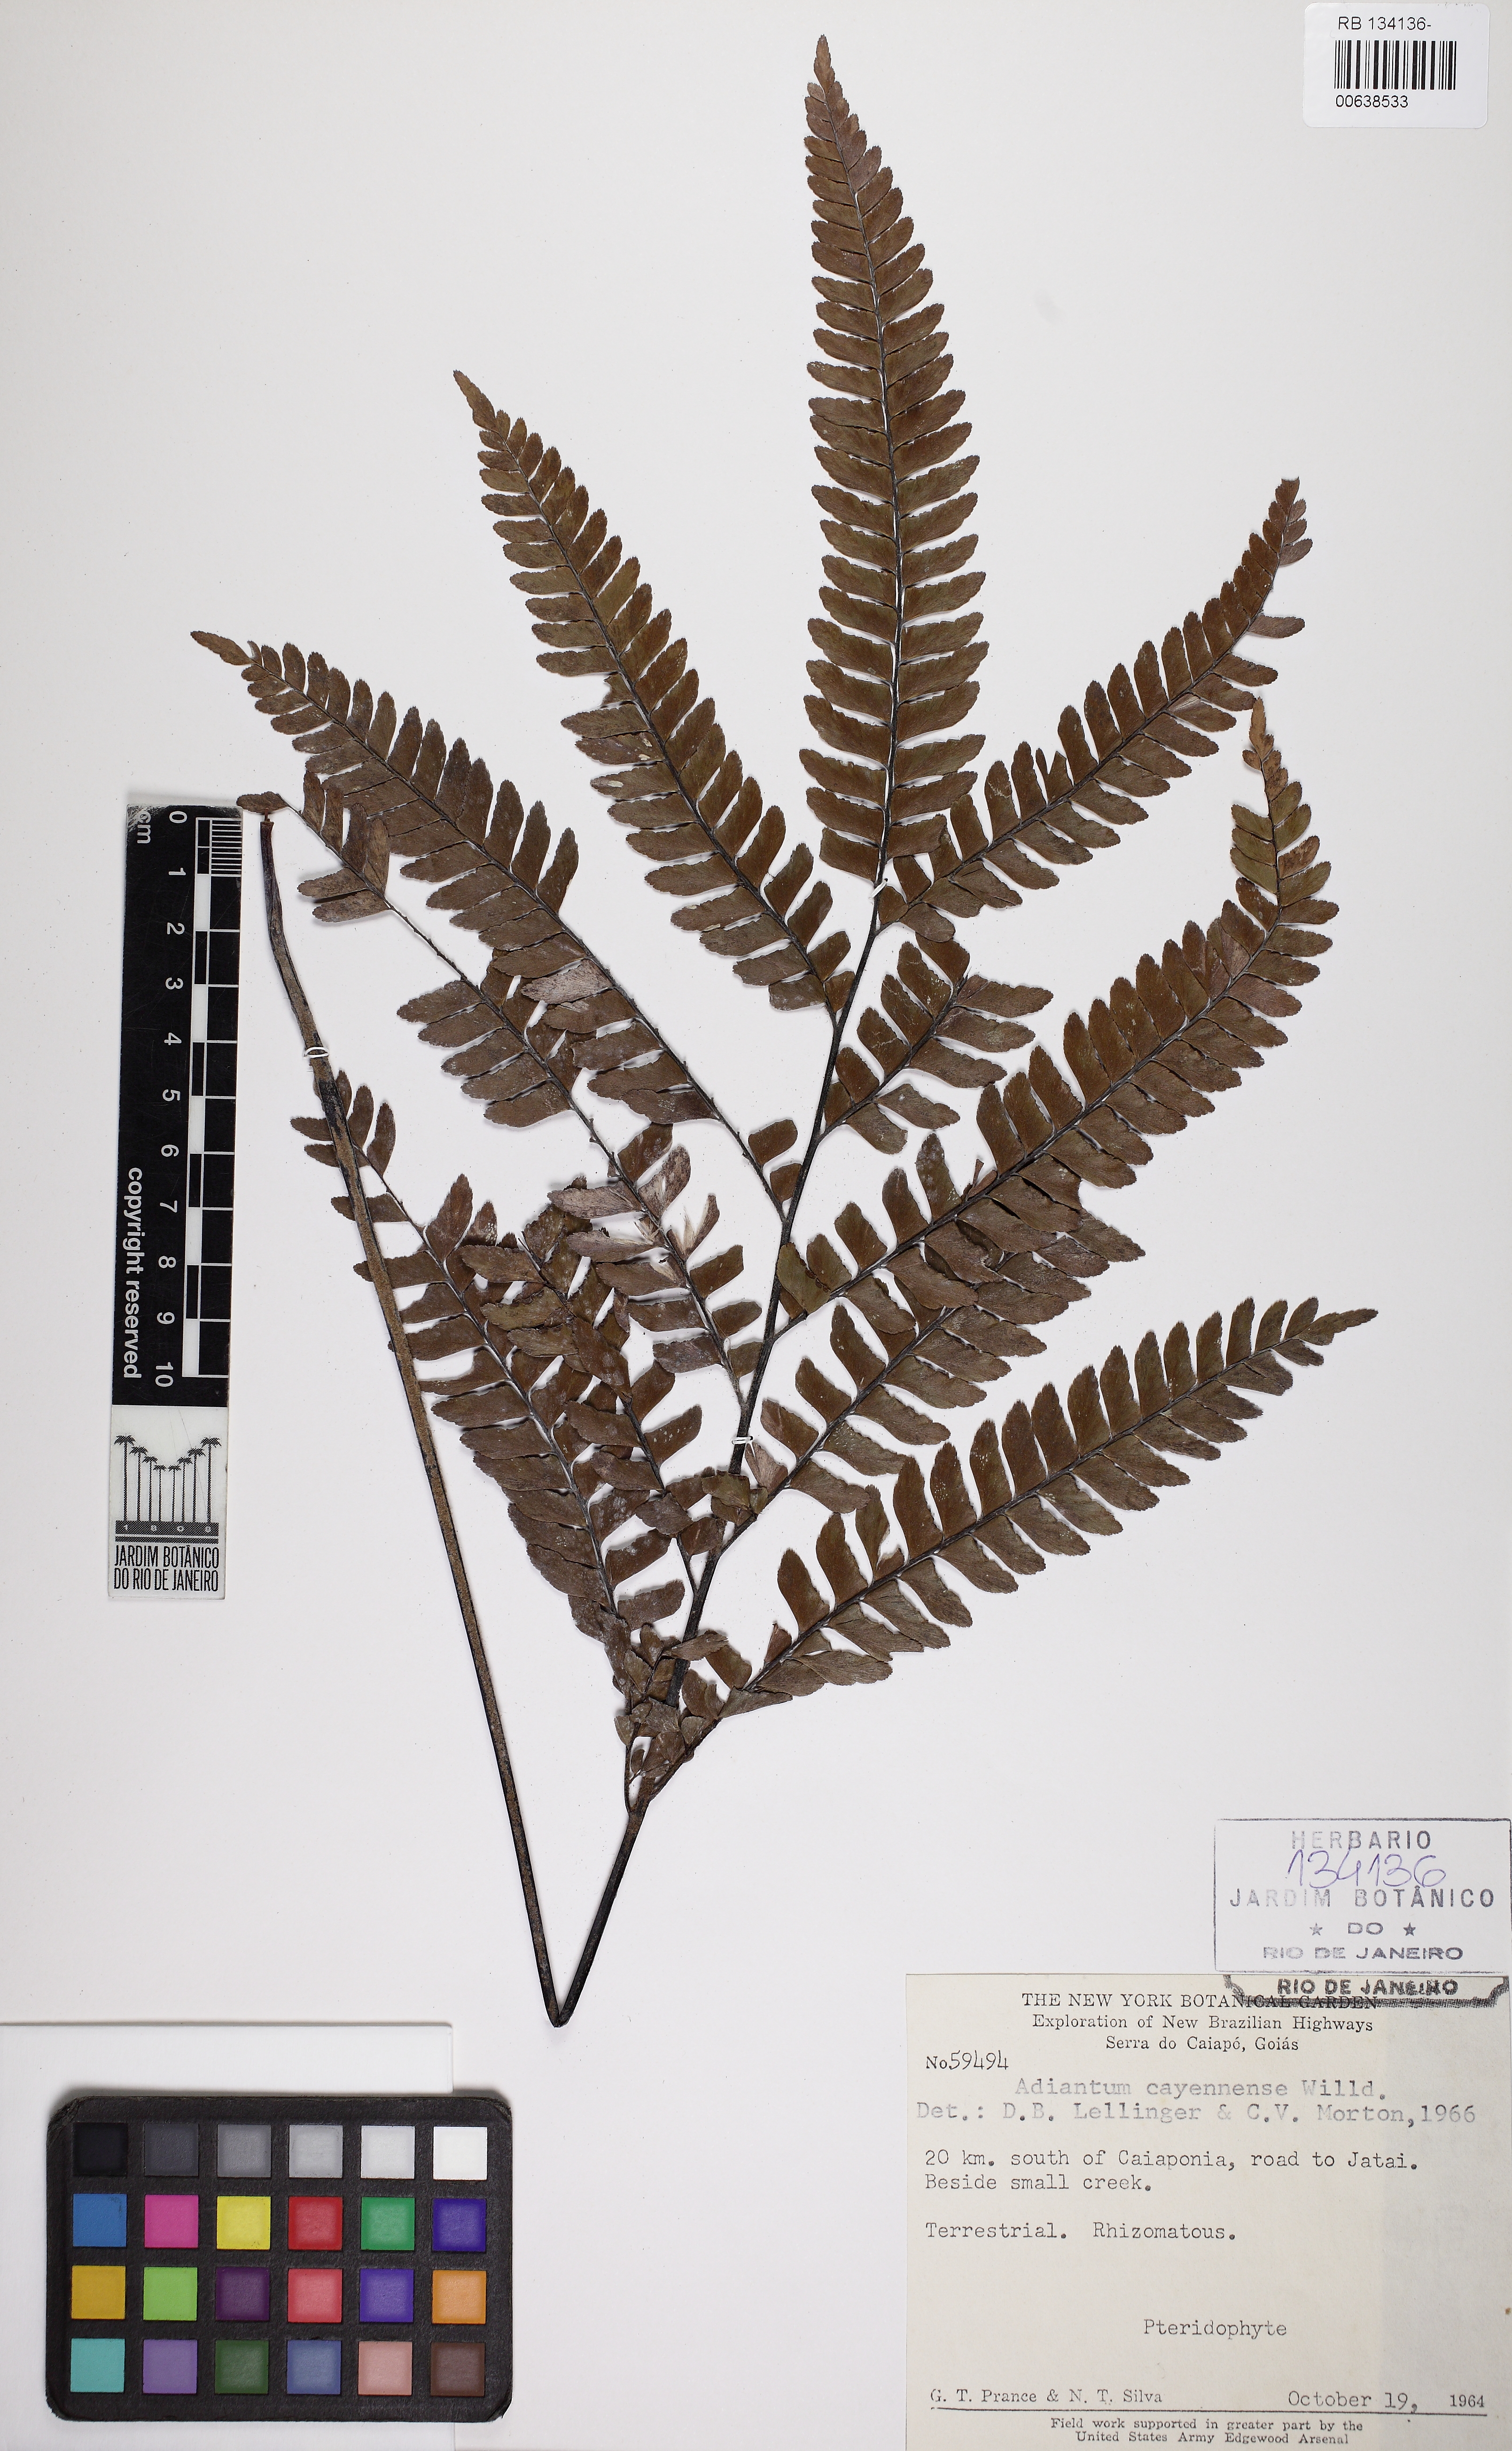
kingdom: Plantae
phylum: Tracheophyta
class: Polypodiopsida
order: Polypodiales
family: Pteridaceae
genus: Adiantum
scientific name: Adiantum cajennense
